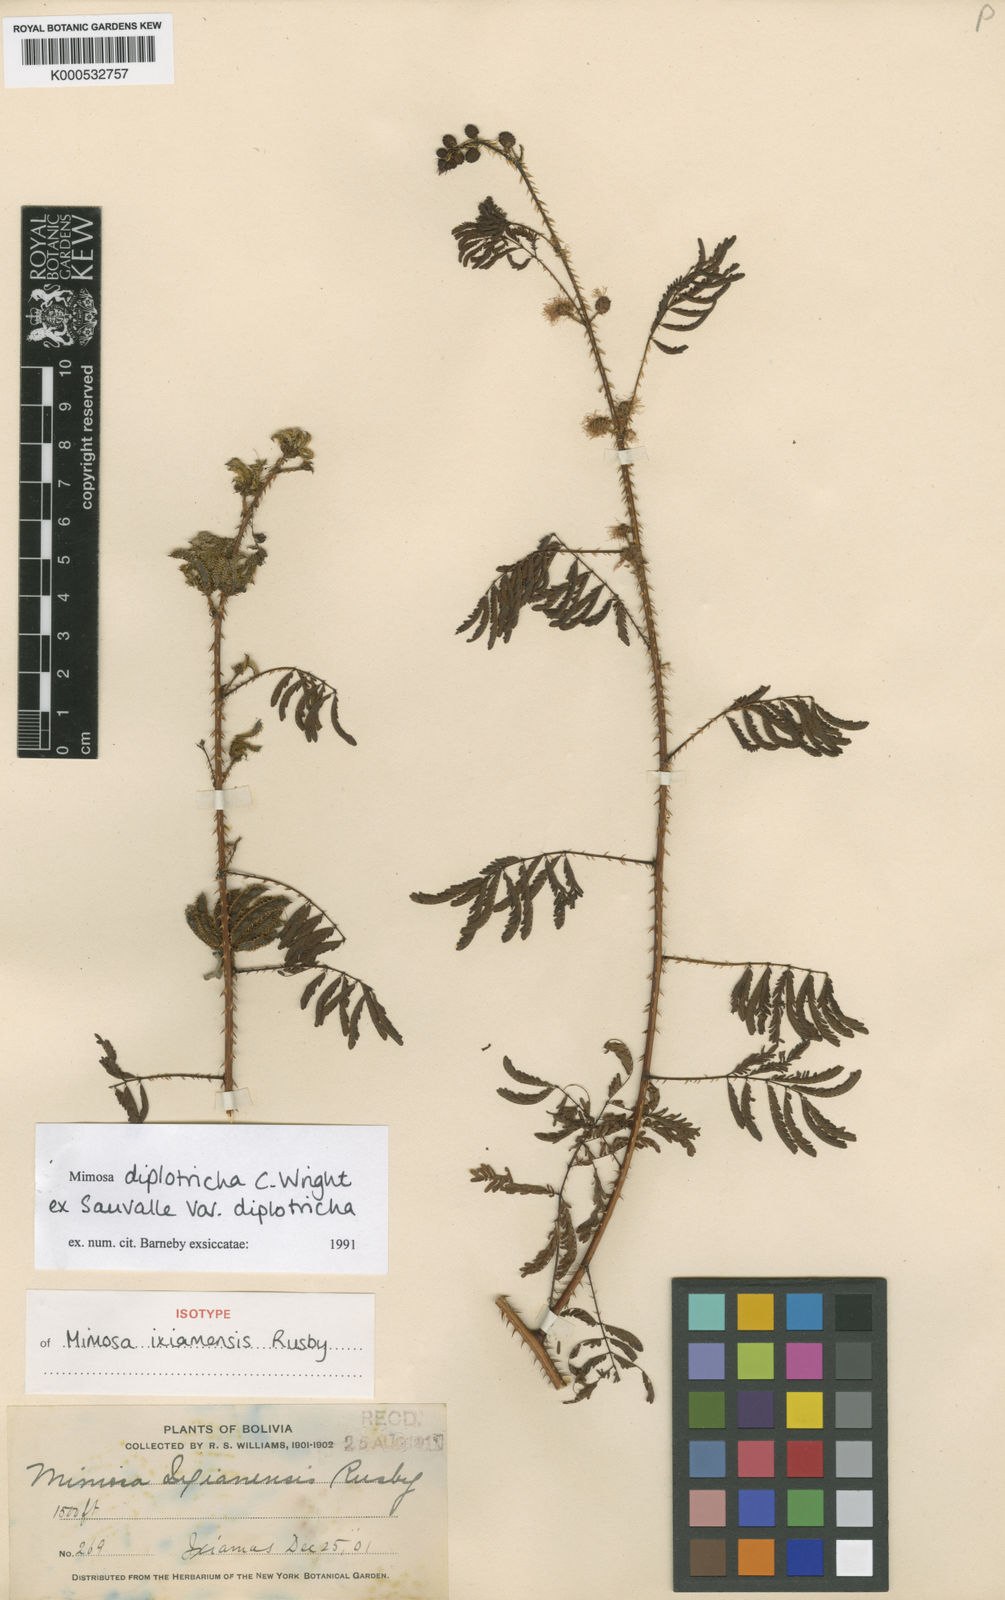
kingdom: Plantae
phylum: Tracheophyta
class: Magnoliopsida
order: Fabales
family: Fabaceae
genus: Mimosa
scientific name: Mimosa diplotricha
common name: Giant sensitive-plant
